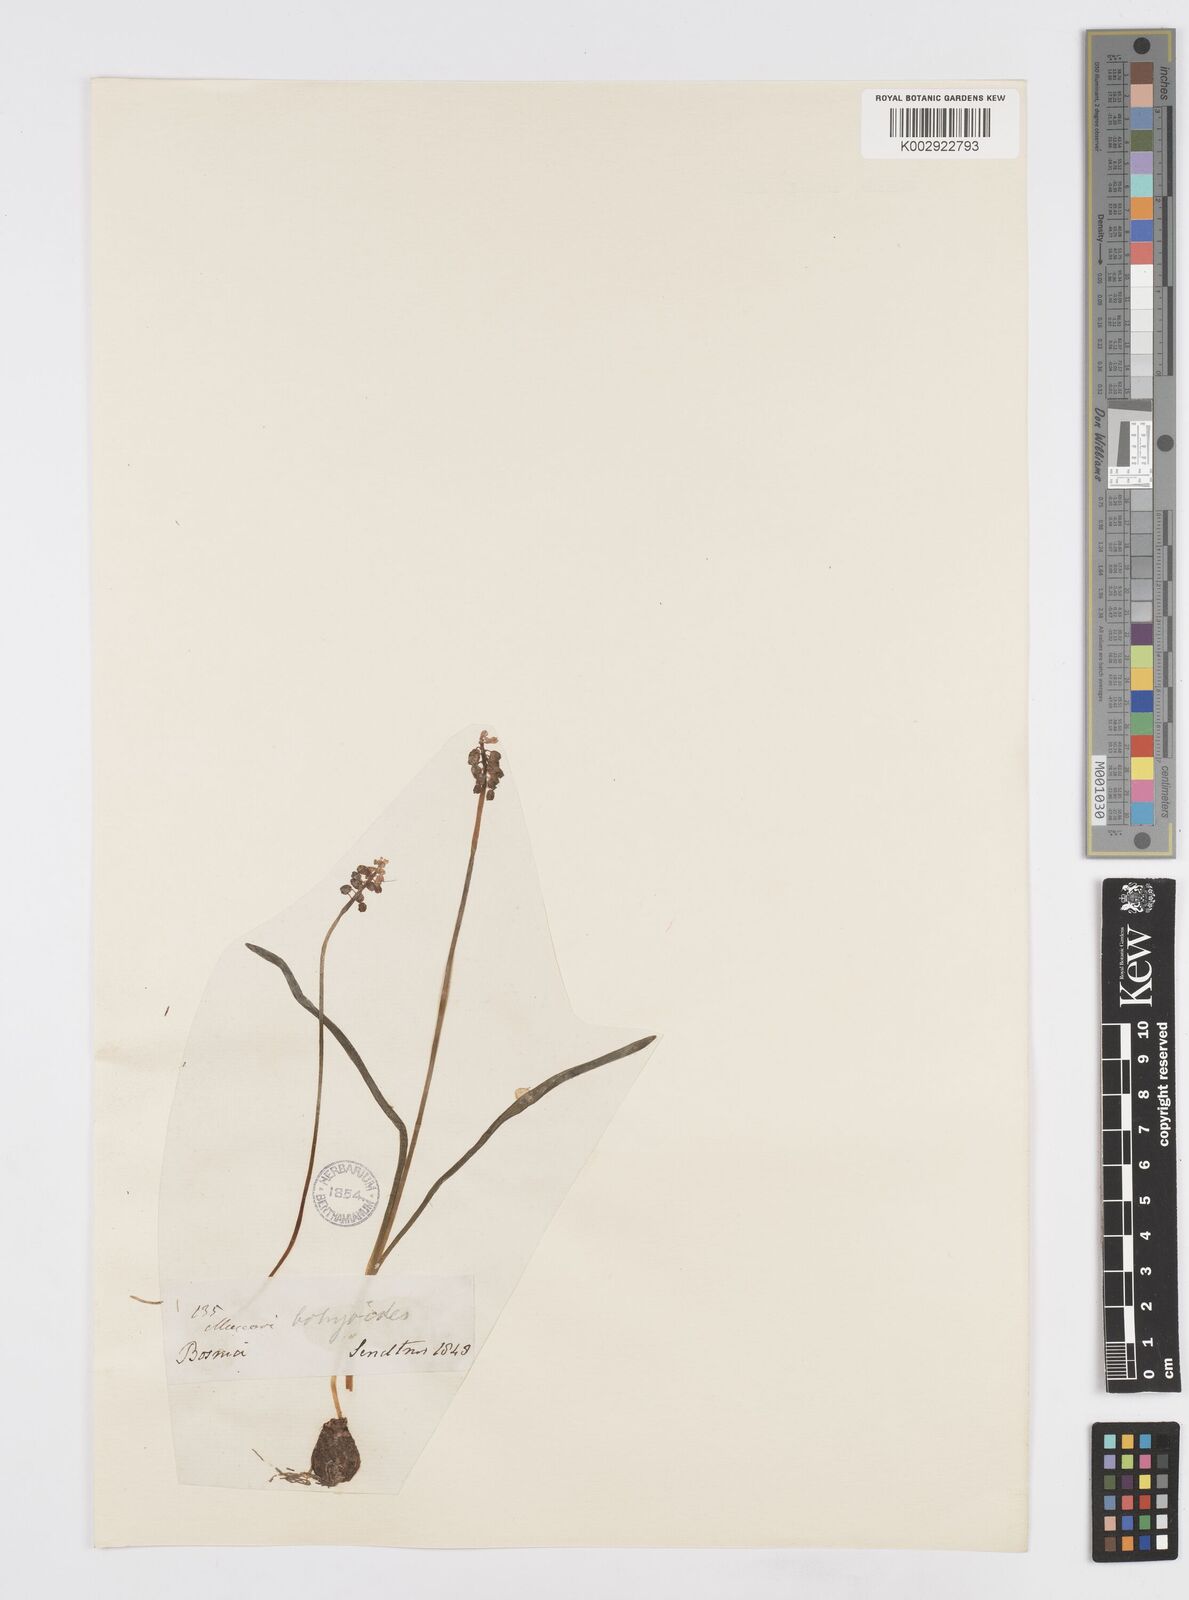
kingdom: Plantae
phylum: Tracheophyta
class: Liliopsida
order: Asparagales
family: Asparagaceae
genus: Muscari
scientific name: Muscari botryoides
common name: Compact grape-hyacinth
